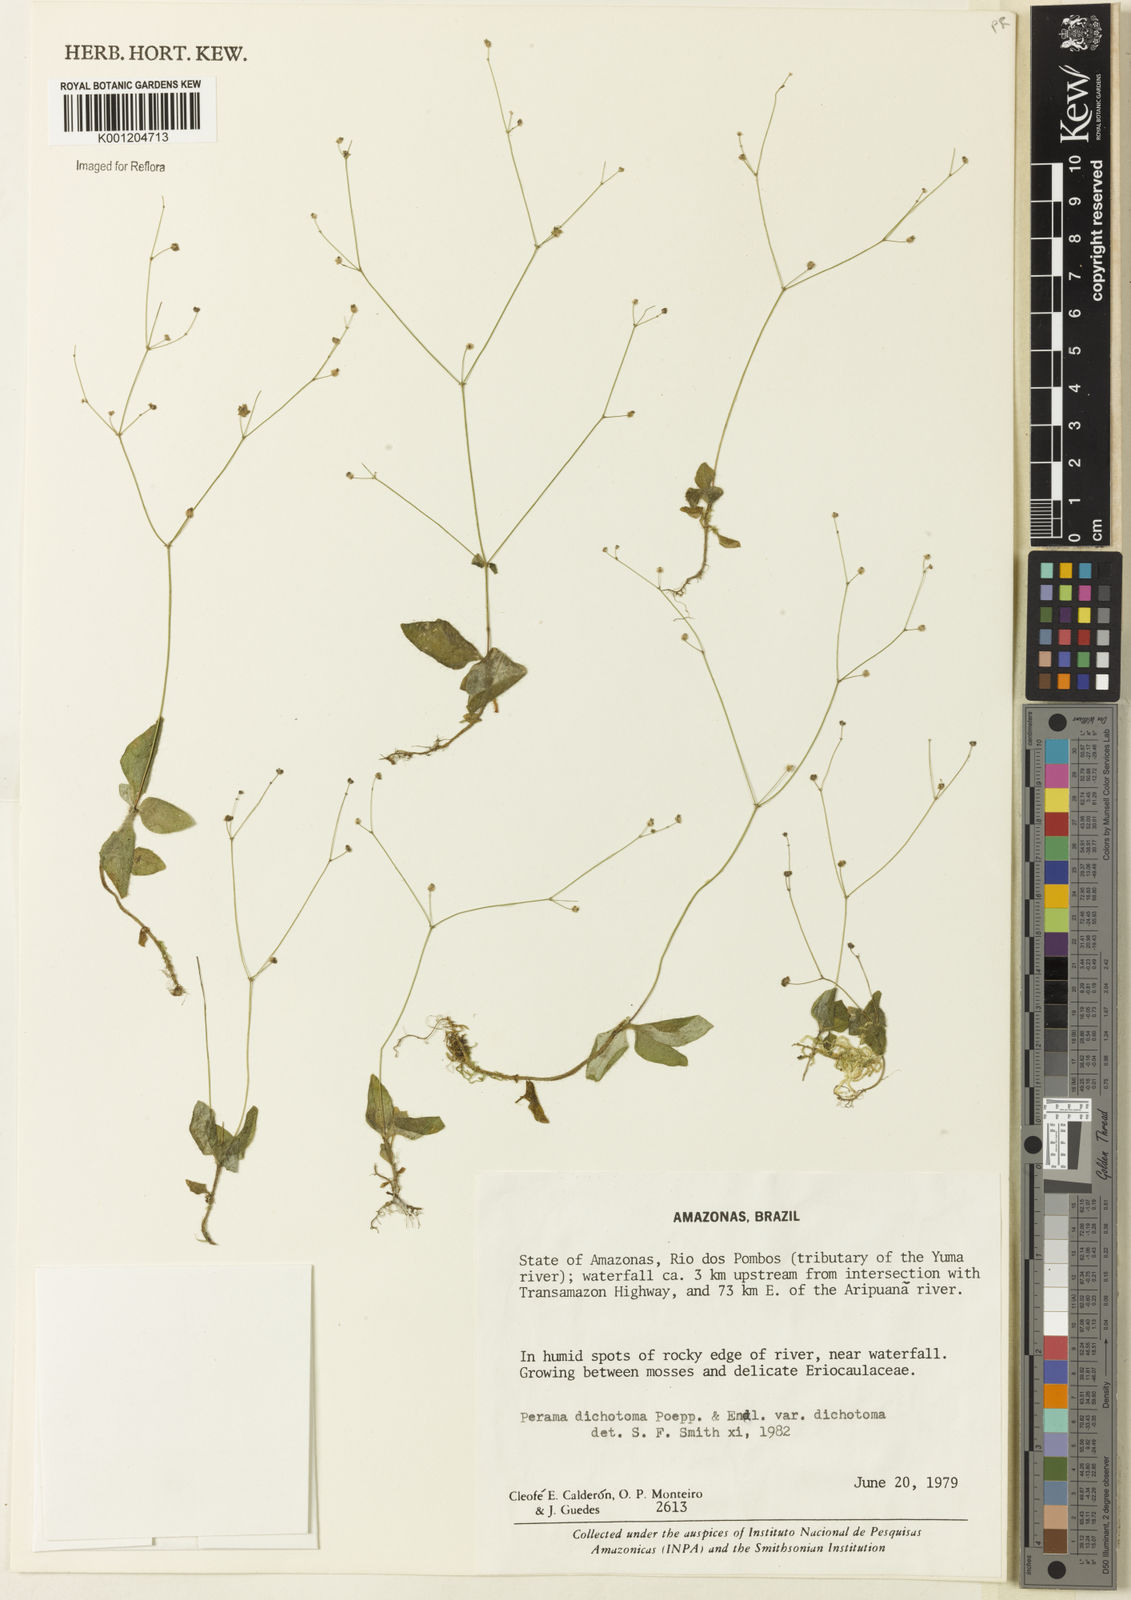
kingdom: Plantae
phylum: Tracheophyta
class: Magnoliopsida
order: Gentianales
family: Rubiaceae
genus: Perama
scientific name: Perama dichotoma
